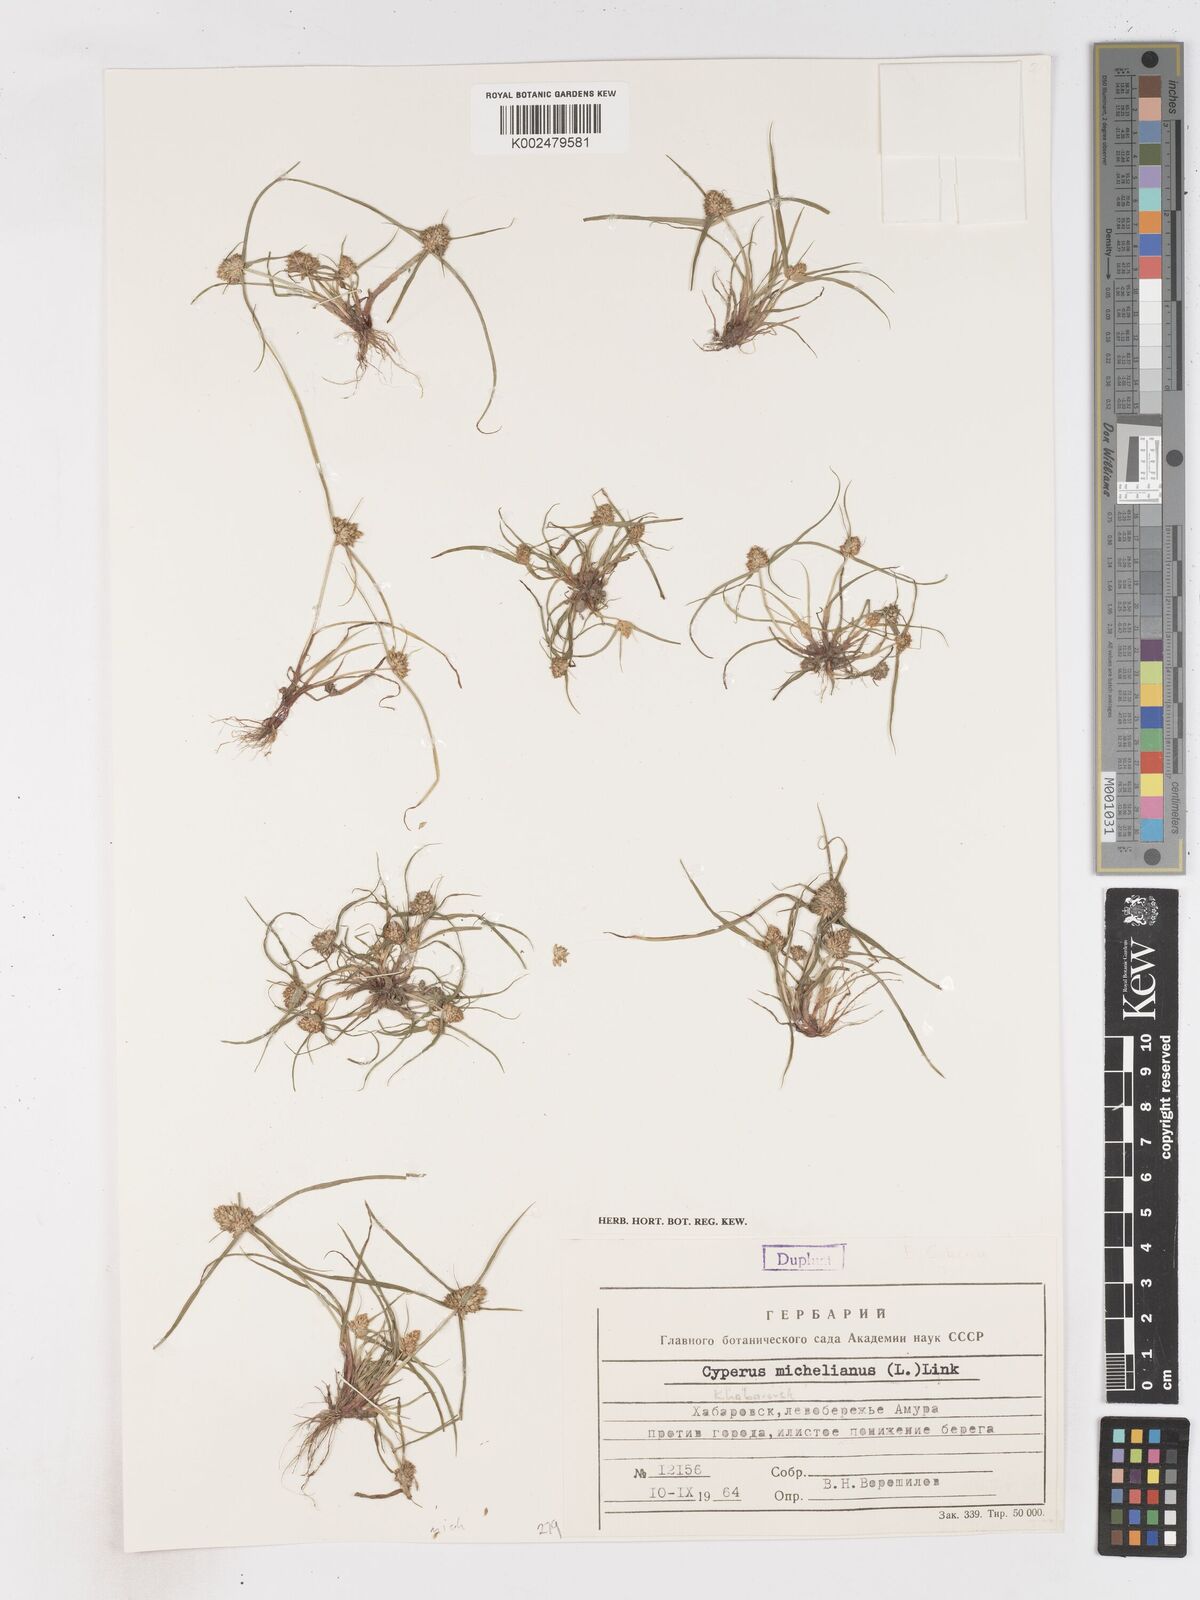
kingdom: Plantae
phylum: Tracheophyta
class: Liliopsida
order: Poales
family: Cyperaceae
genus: Cyperus
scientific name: Cyperus michelianus
